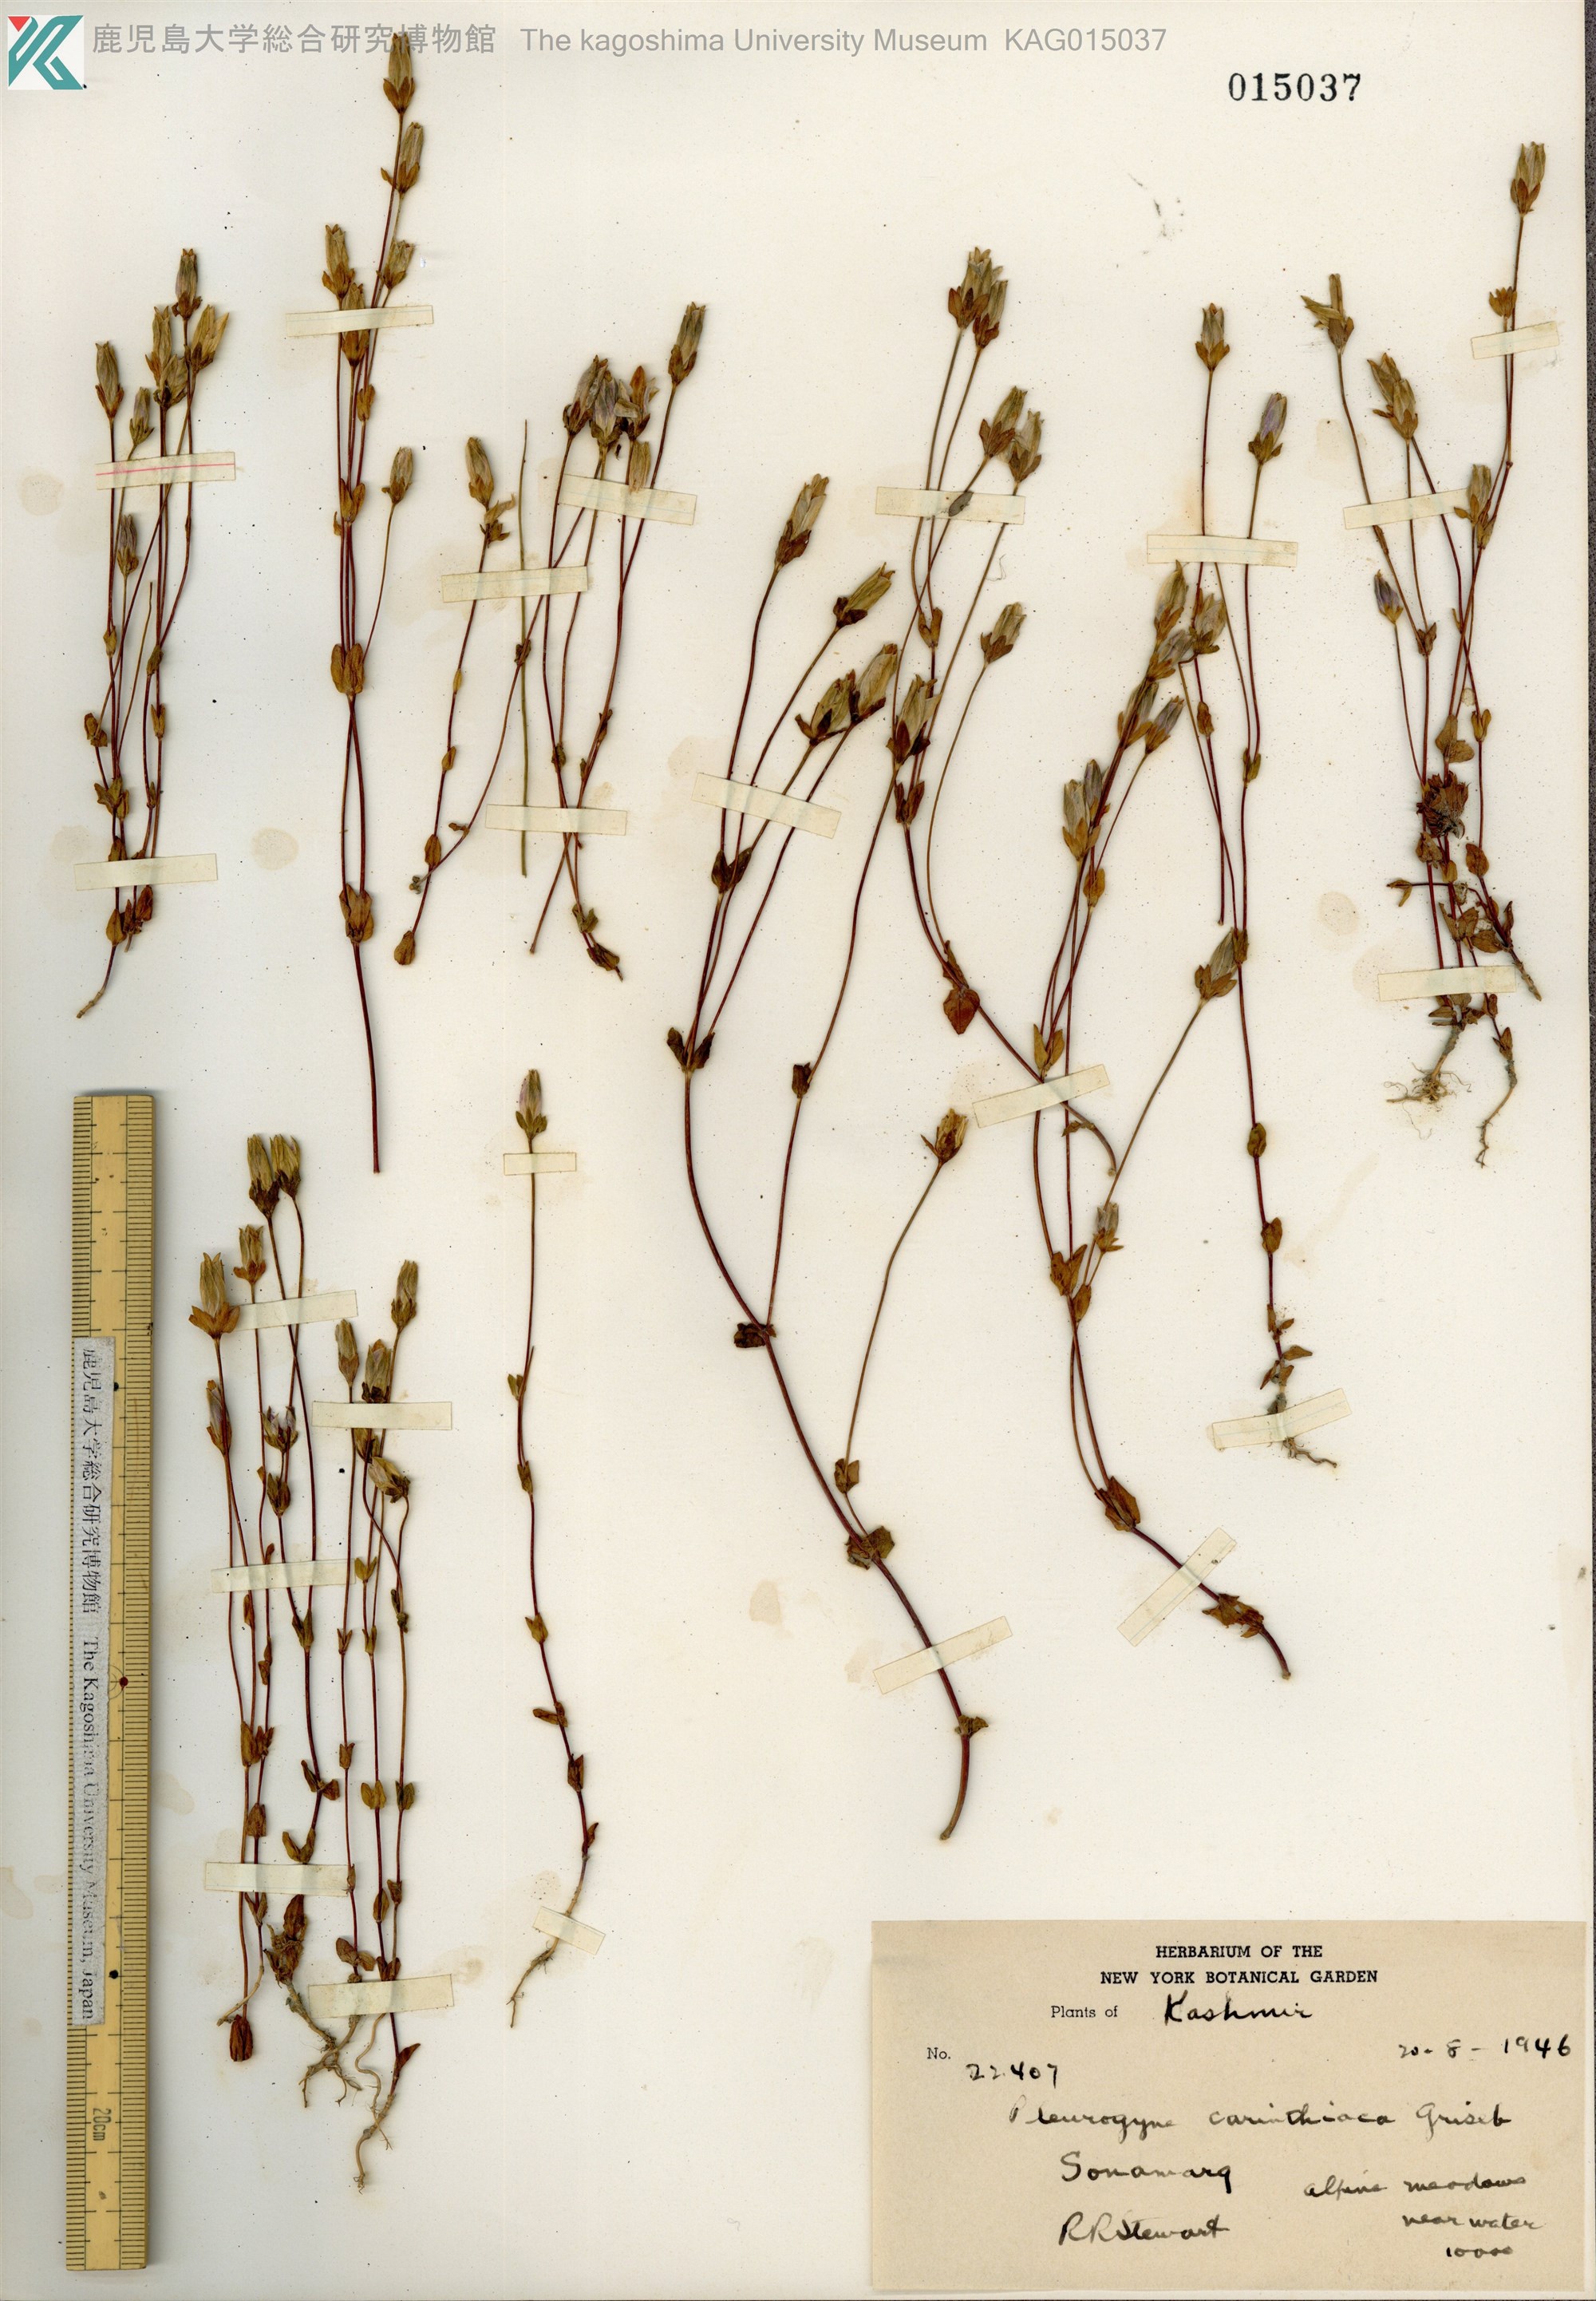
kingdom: Plantae
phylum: Tracheophyta
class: Magnoliopsida
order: Gentianales
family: Gentianaceae
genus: Lomatogonium
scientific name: Lomatogonium carinthiacum
